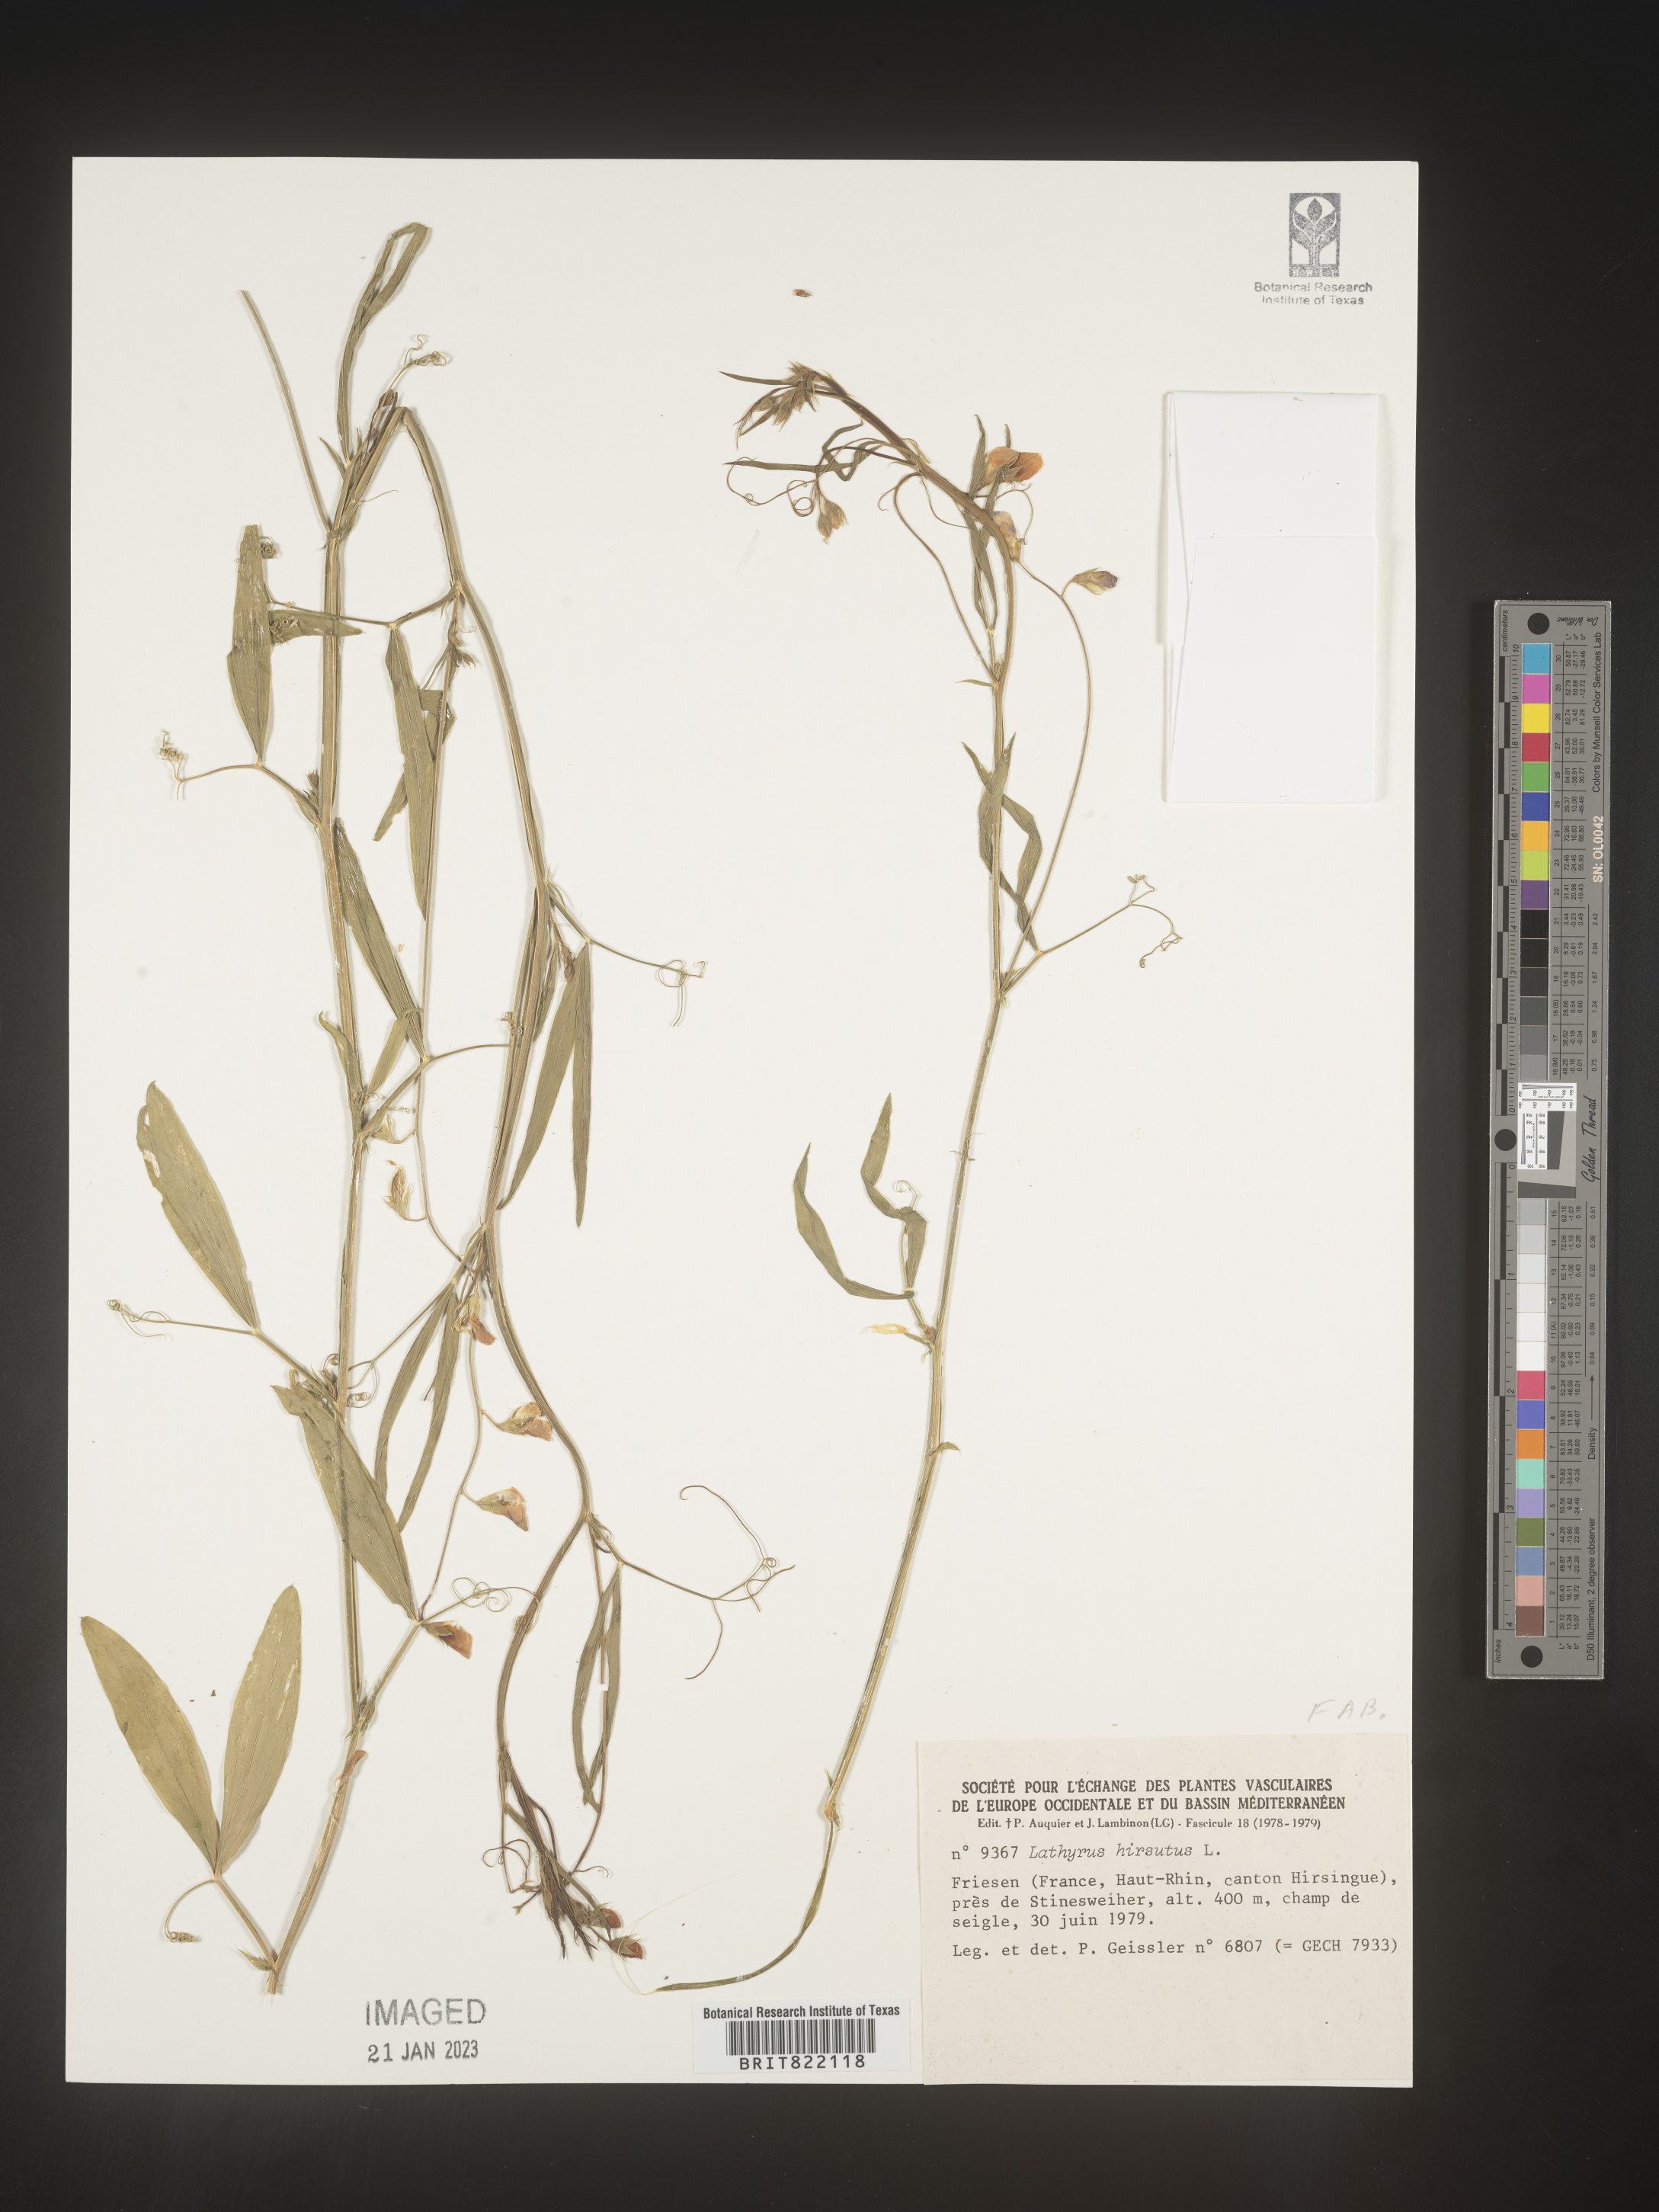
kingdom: Plantae
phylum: Tracheophyta
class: Magnoliopsida
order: Fabales
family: Fabaceae
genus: Lathyrus
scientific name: Lathyrus
